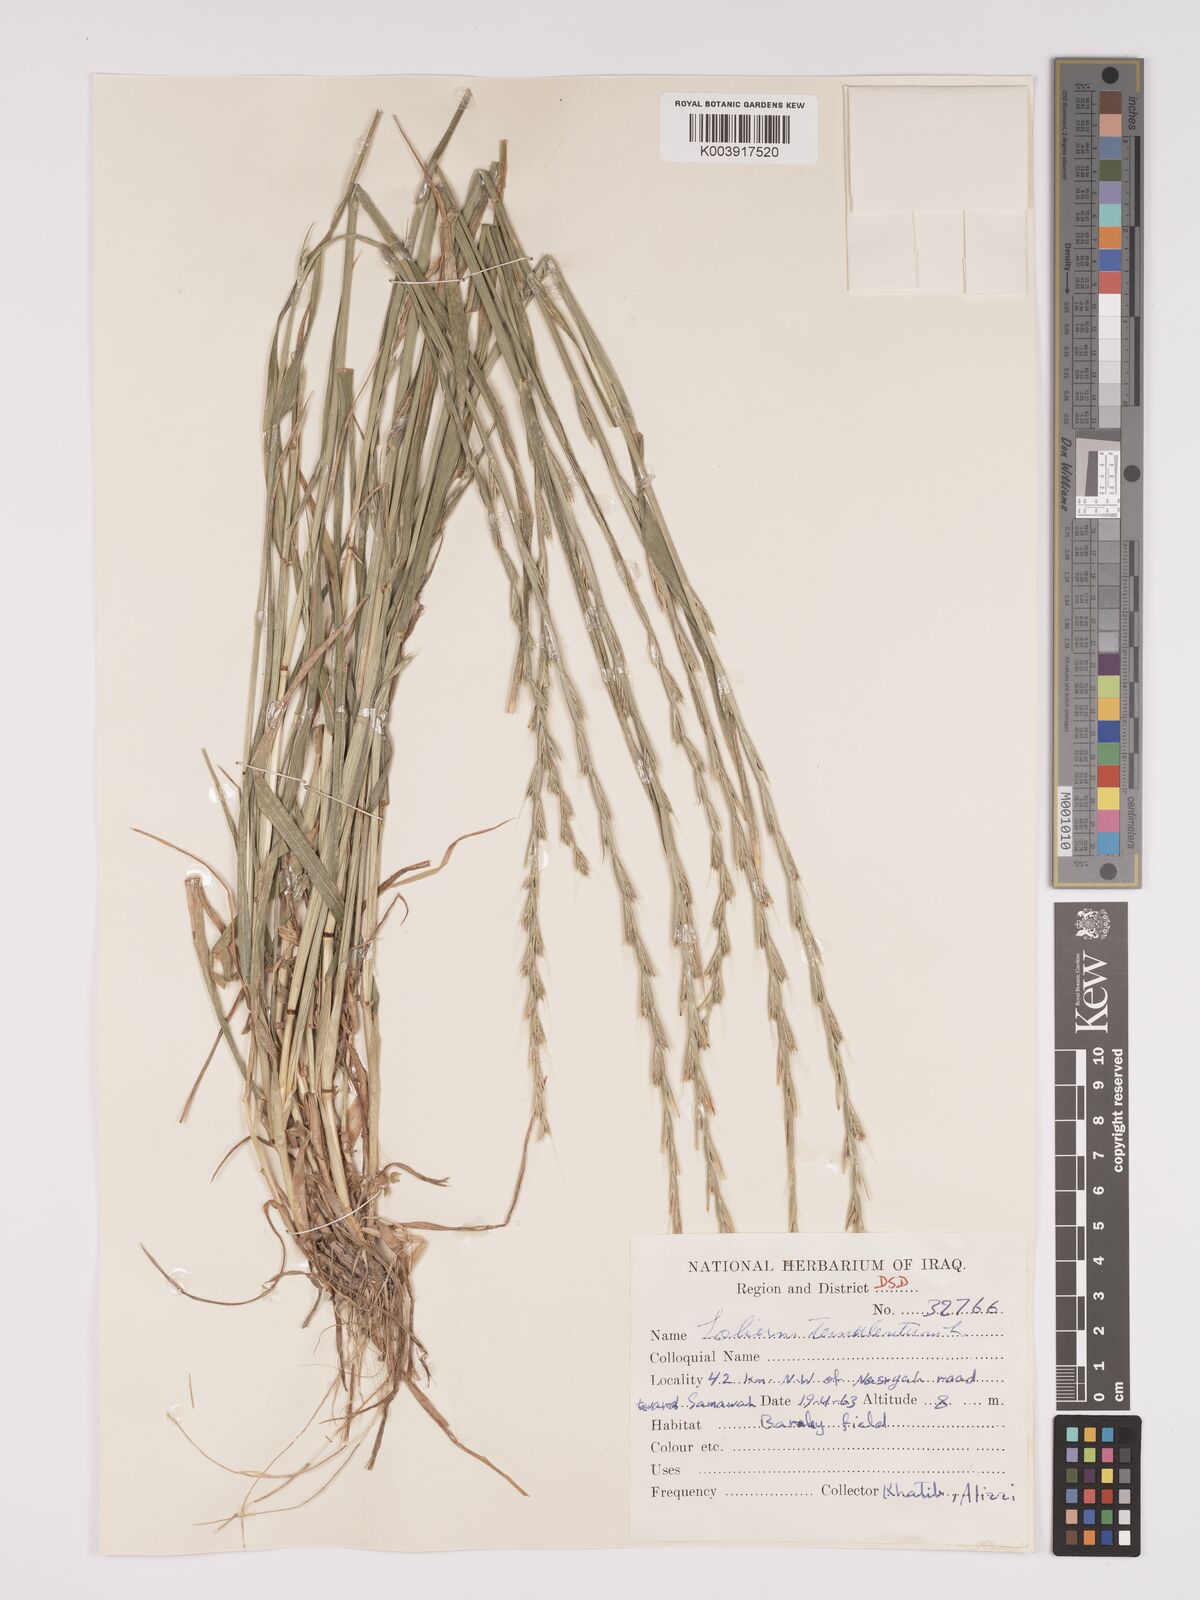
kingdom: Plantae
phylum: Tracheophyta
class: Liliopsida
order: Poales
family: Poaceae
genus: Lolium
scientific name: Lolium temulentum
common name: Darnel
